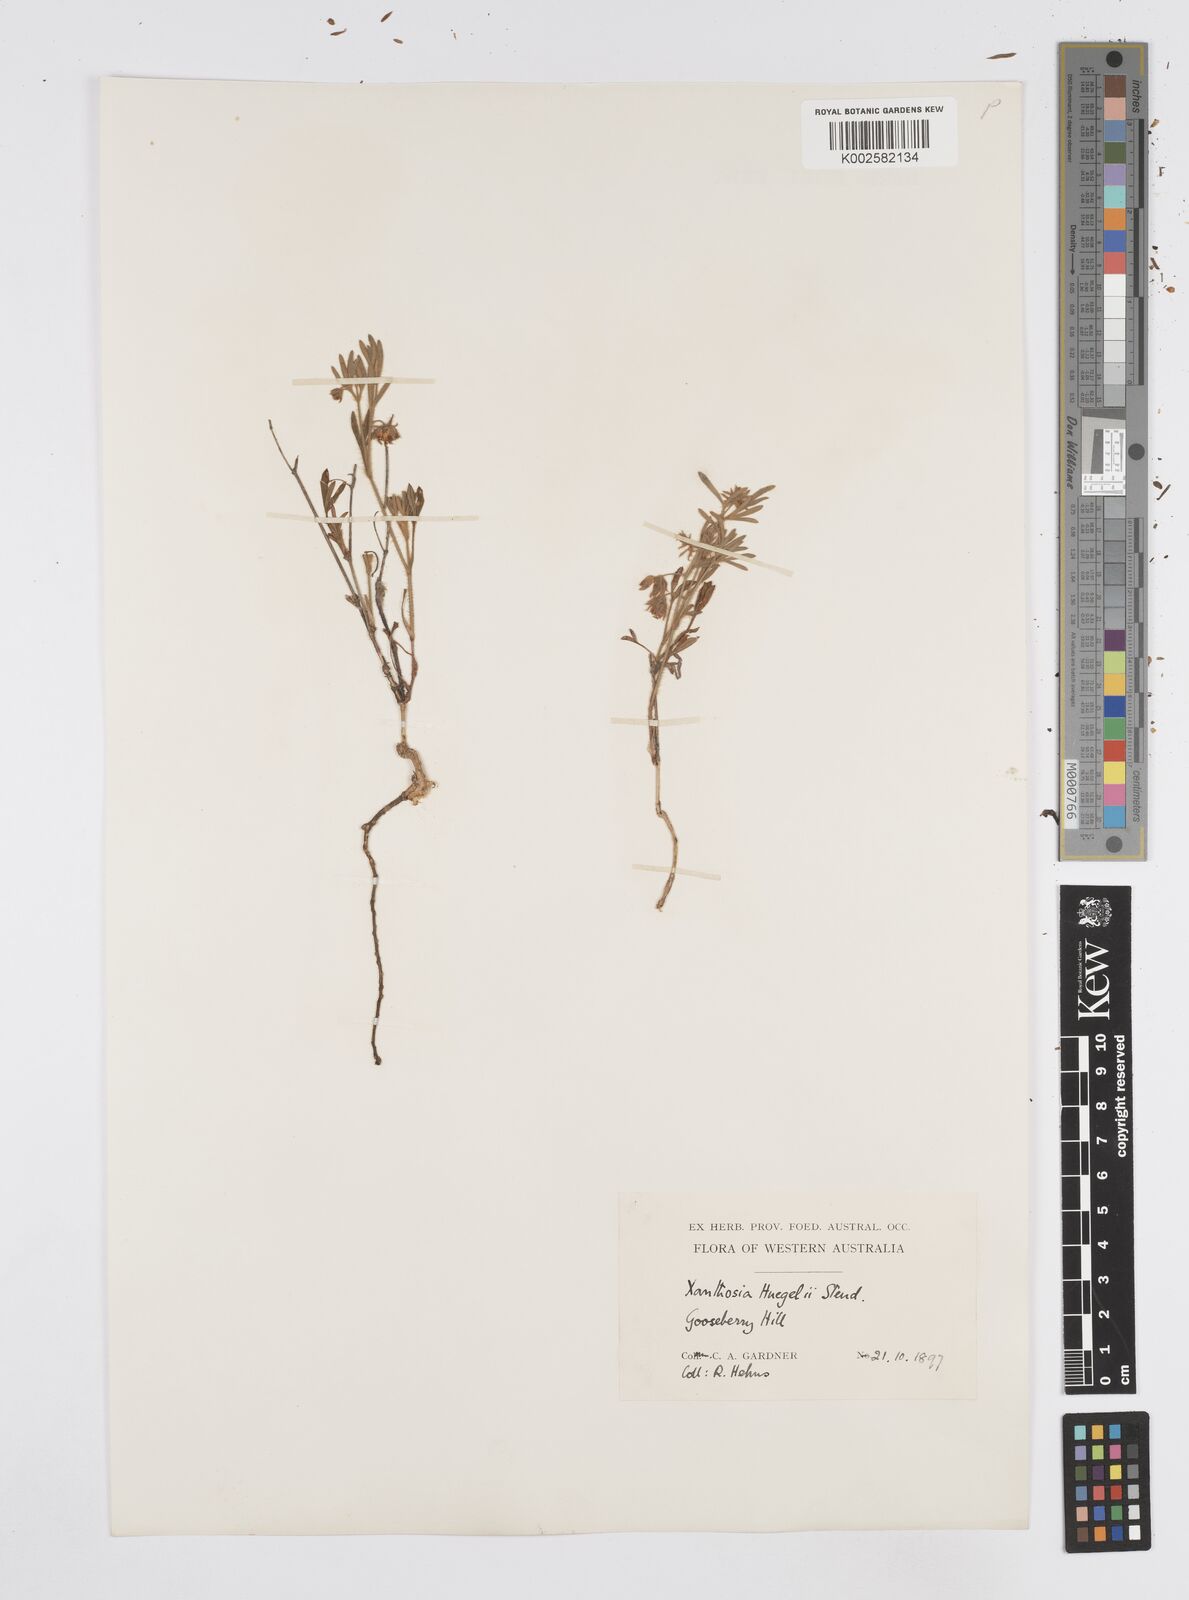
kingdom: Plantae
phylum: Tracheophyta
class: Magnoliopsida
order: Apiales
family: Apiaceae
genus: Xanthosia
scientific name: Xanthosia huegelii
